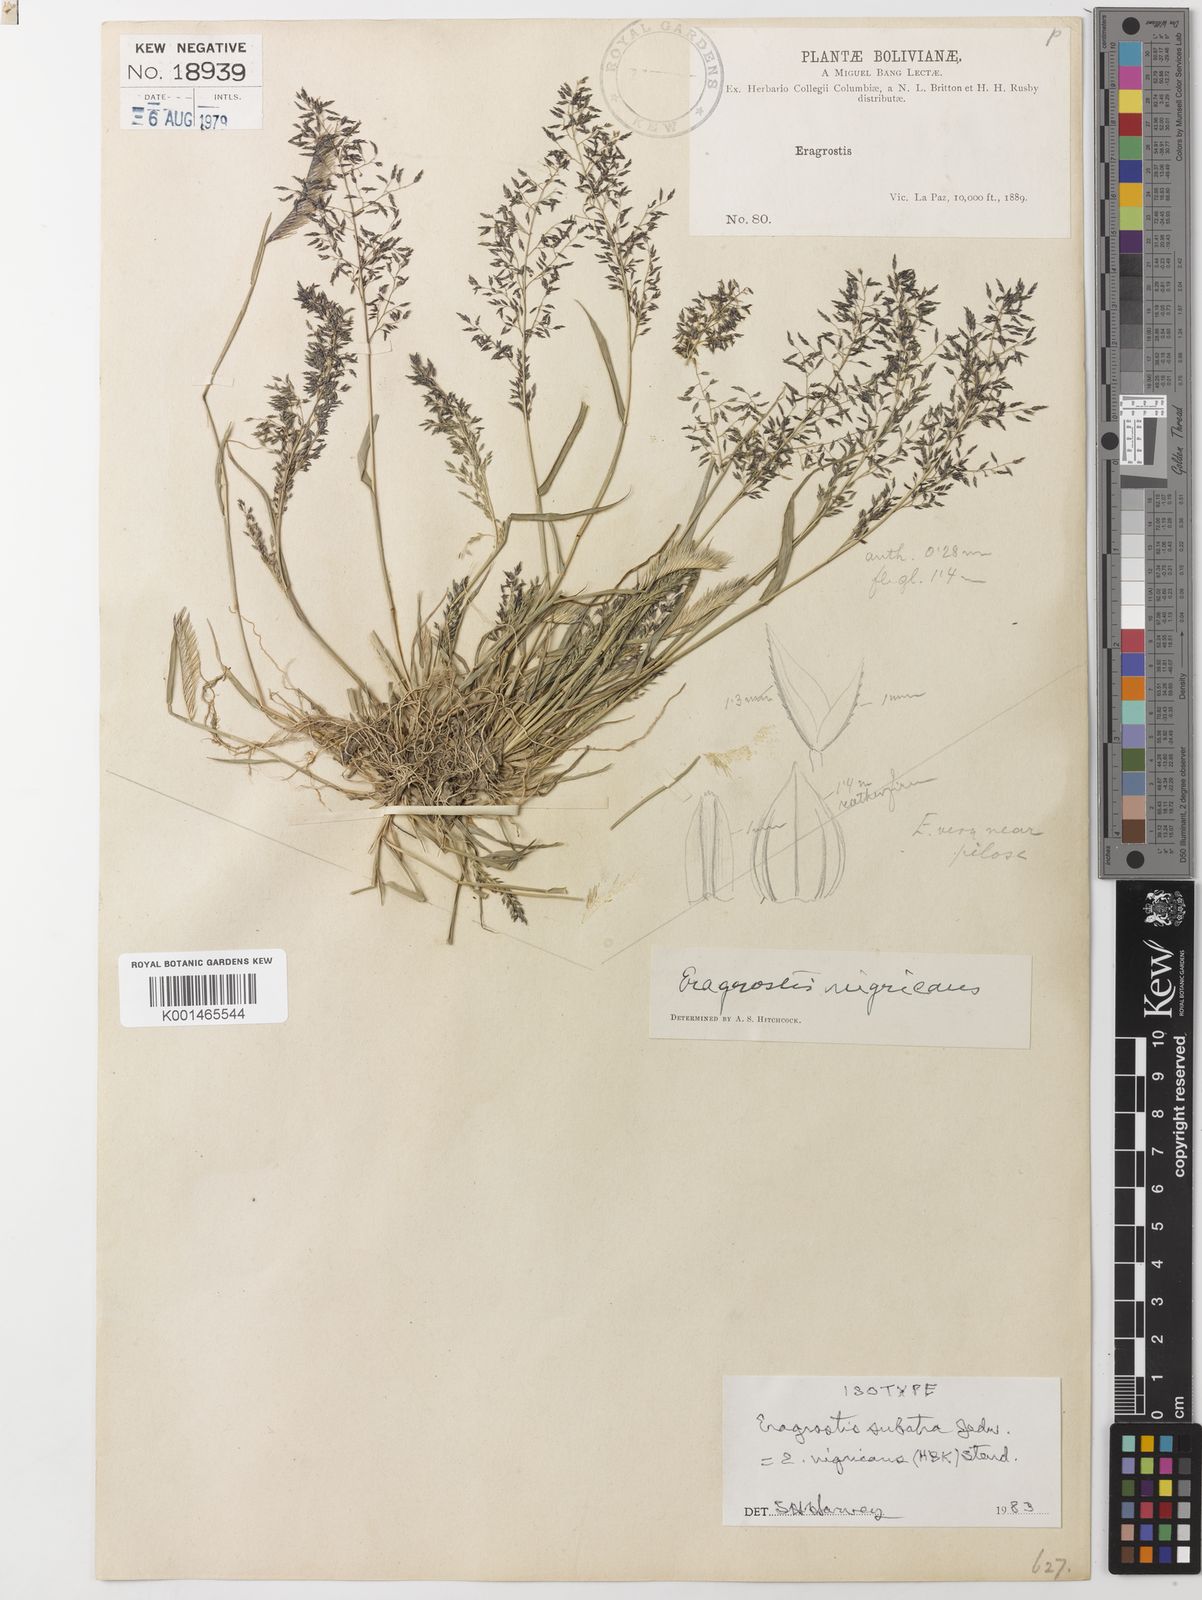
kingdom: Plantae
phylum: Tracheophyta
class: Liliopsida
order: Poales
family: Poaceae
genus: Eragrostis
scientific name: Eragrostis nigricans
